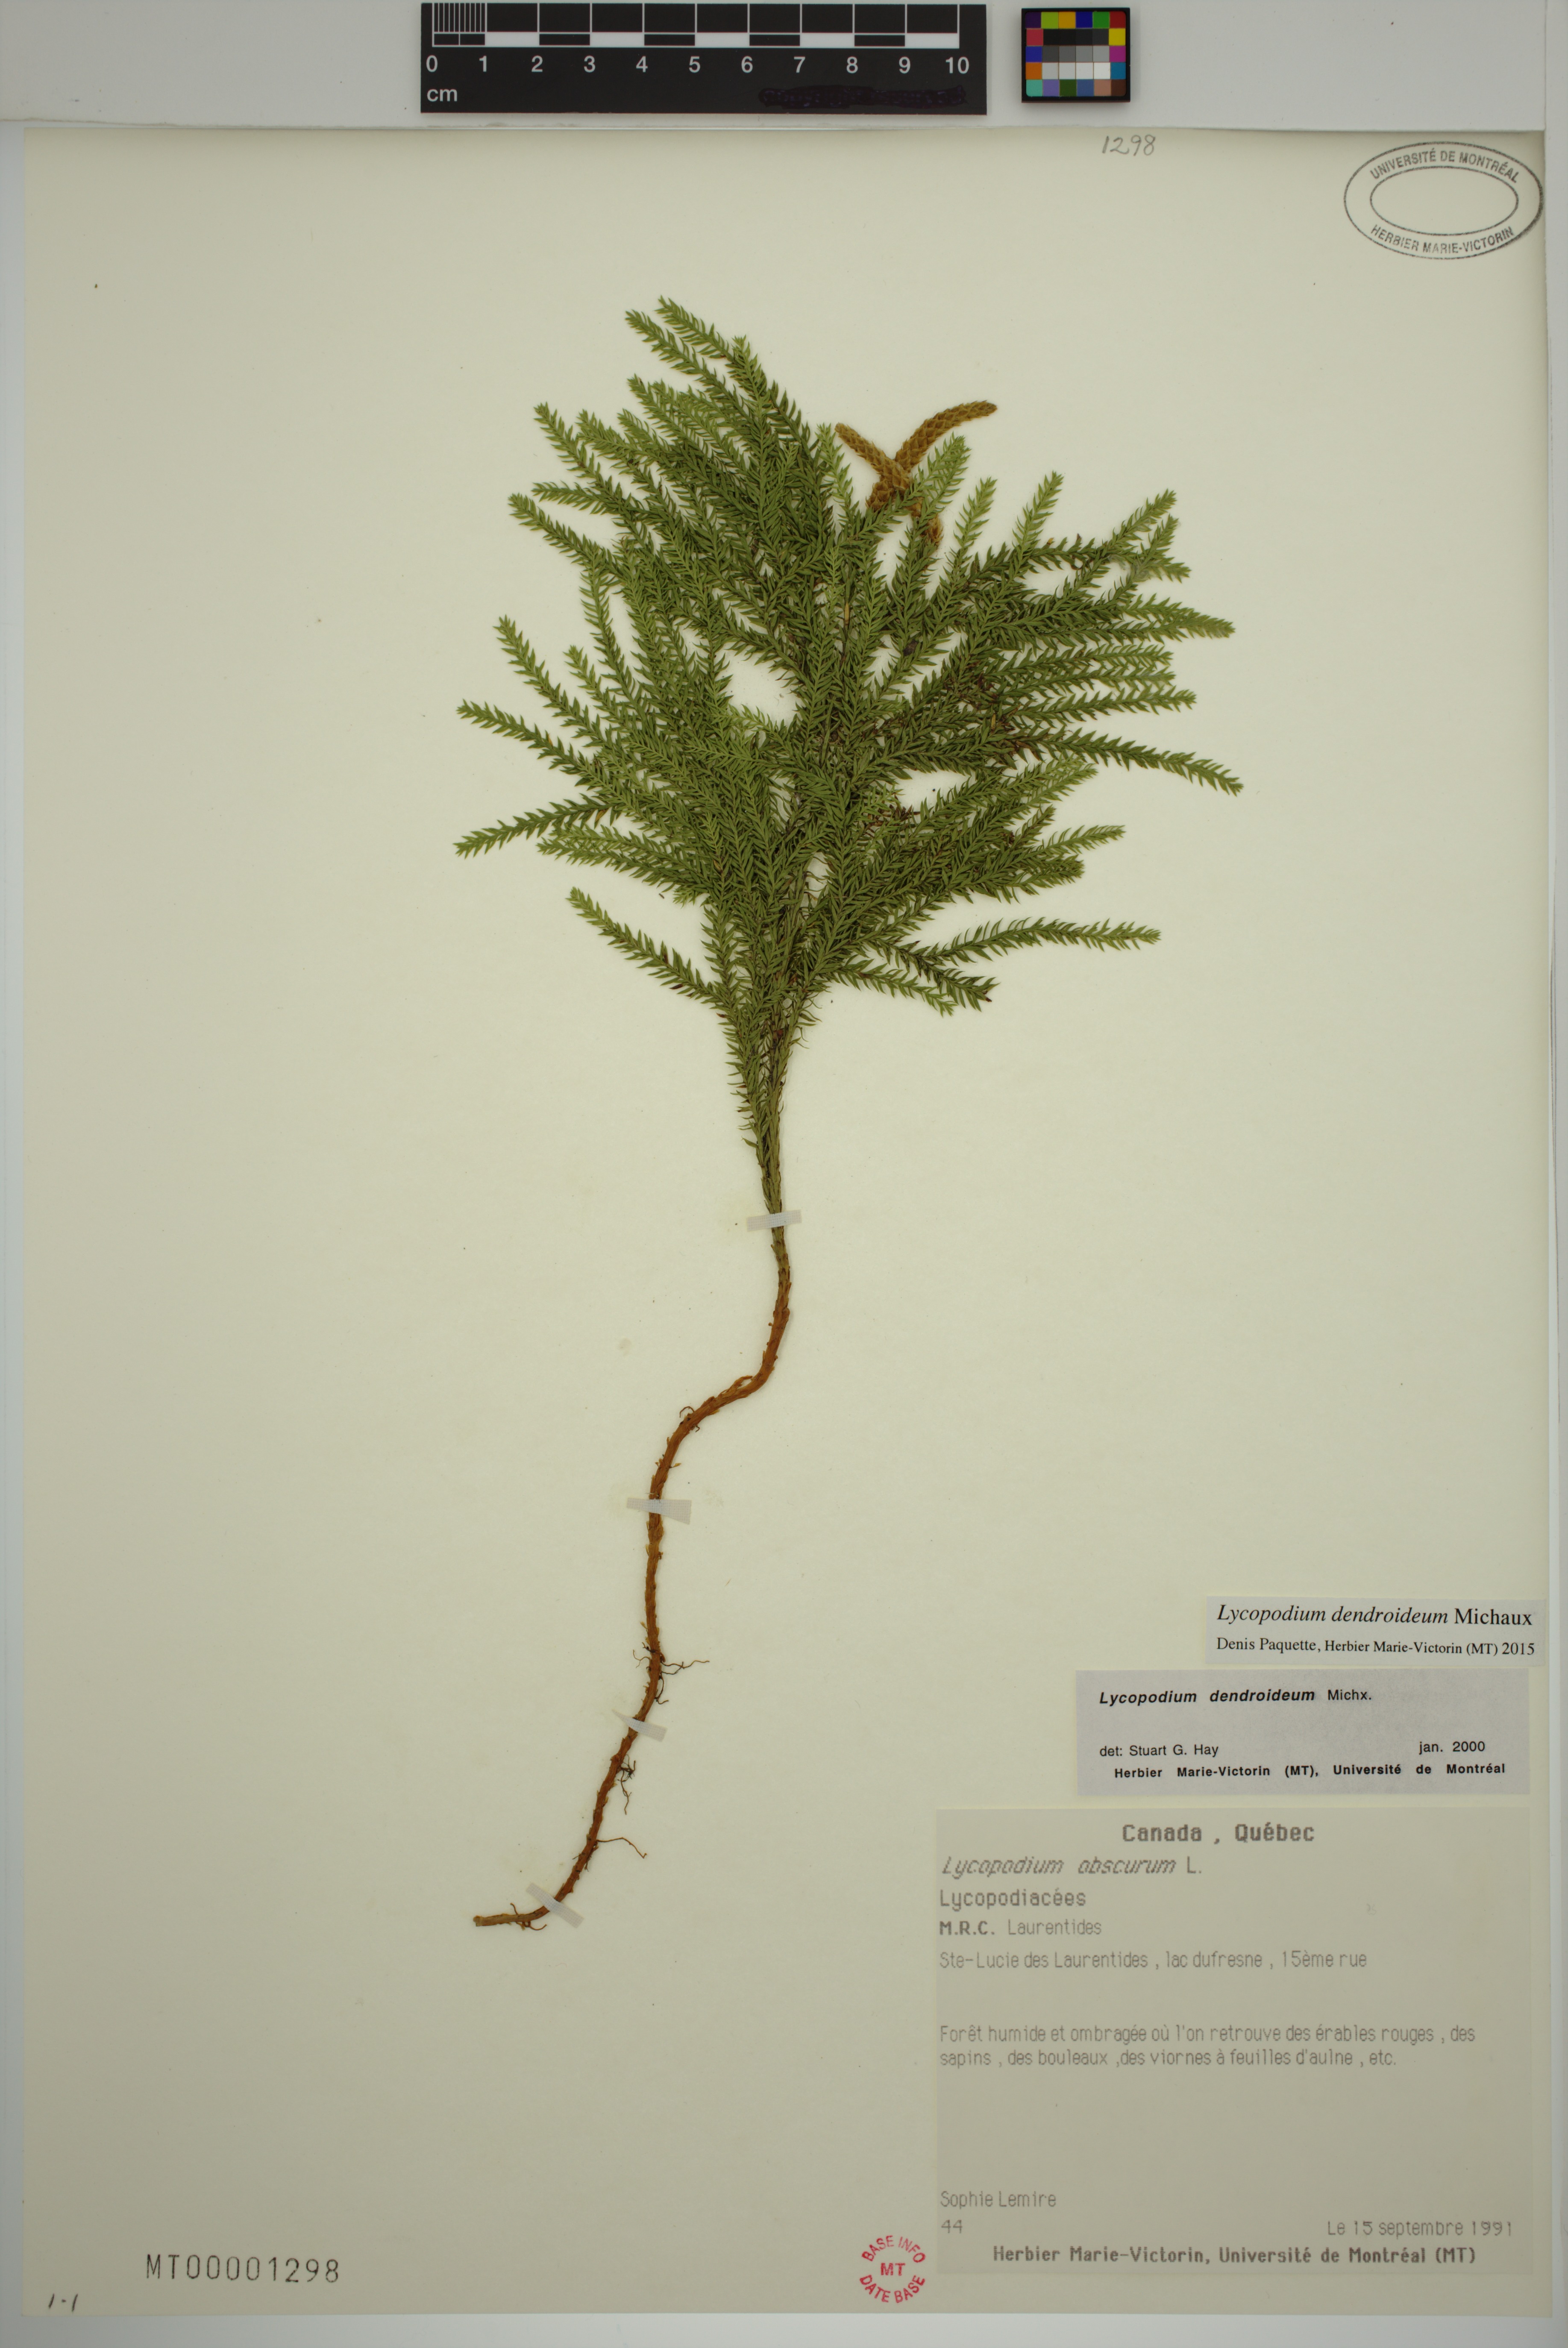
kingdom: Plantae
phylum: Tracheophyta
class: Lycopodiopsida
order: Lycopodiales
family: Lycopodiaceae
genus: Dendrolycopodium
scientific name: Dendrolycopodium dendroideum
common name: Northern tree-clubmoss
